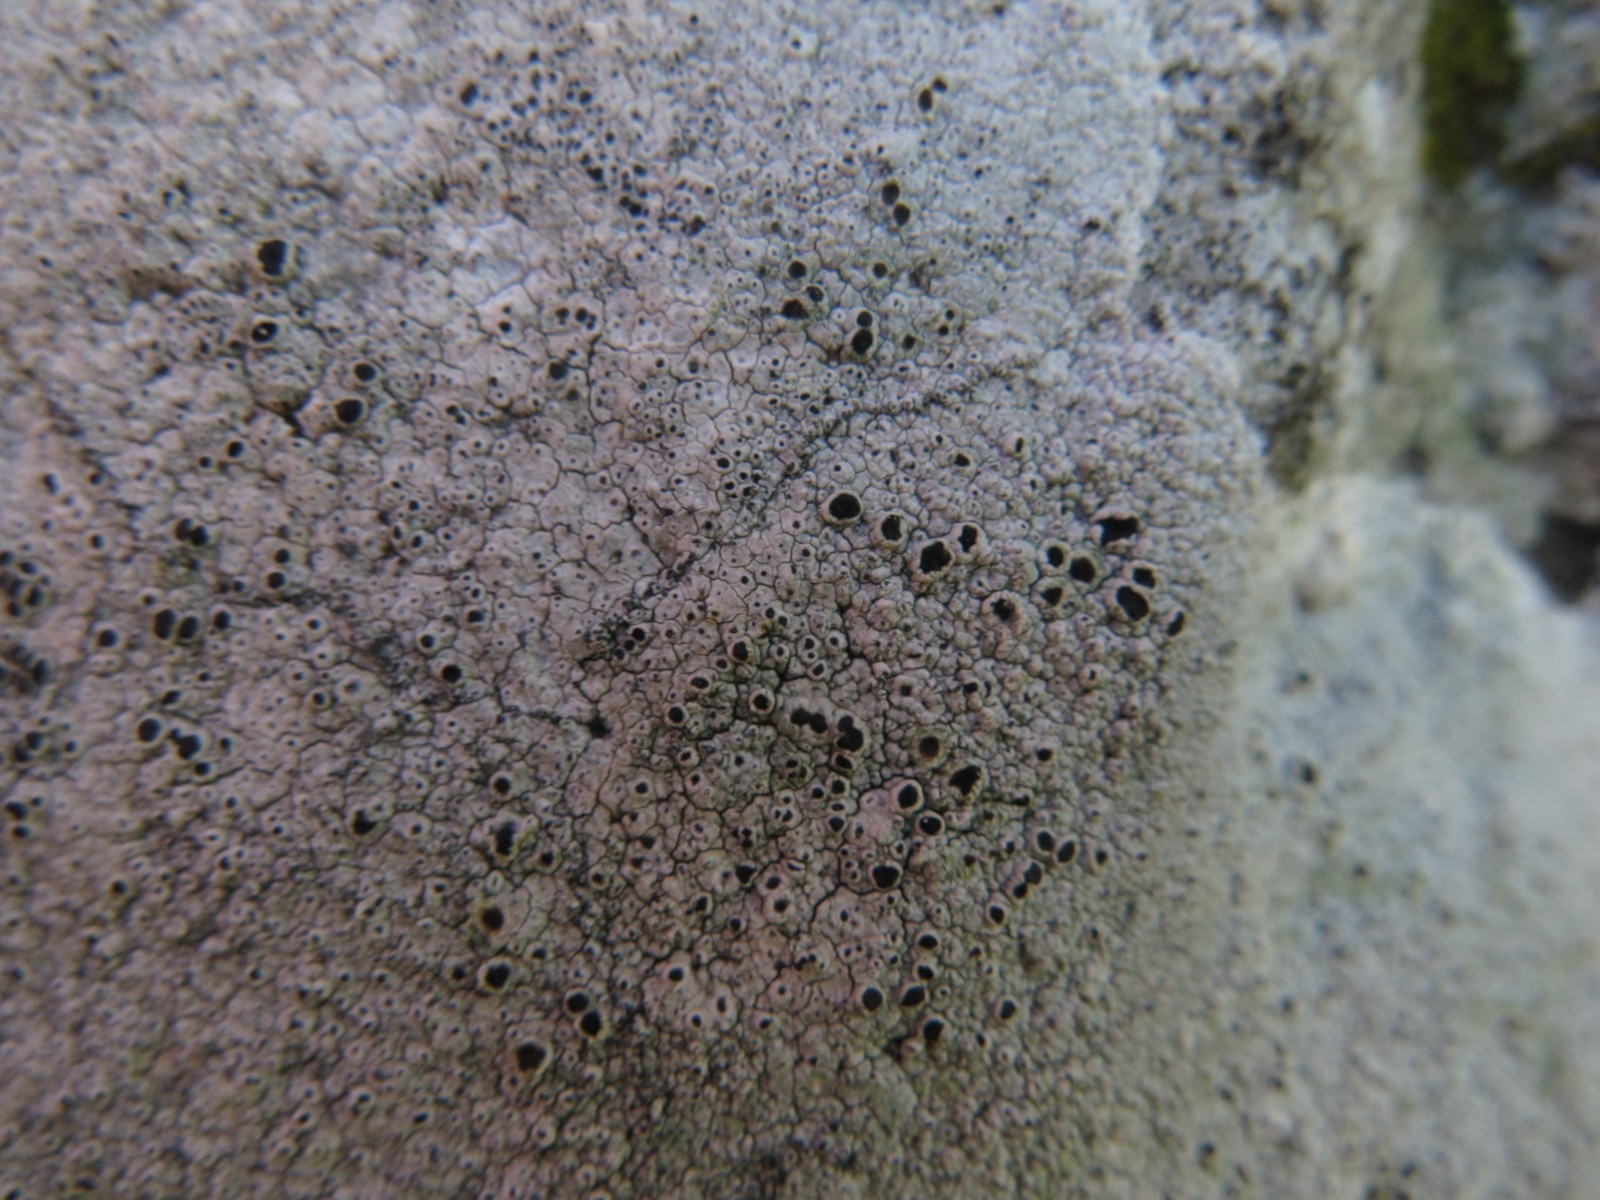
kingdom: Fungi
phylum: Ascomycota
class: Lecanoromycetes
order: Lecanorales
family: Tephromelataceae
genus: Tephromela
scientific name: Tephromela atra
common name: sortfrugtet kantskivelav
